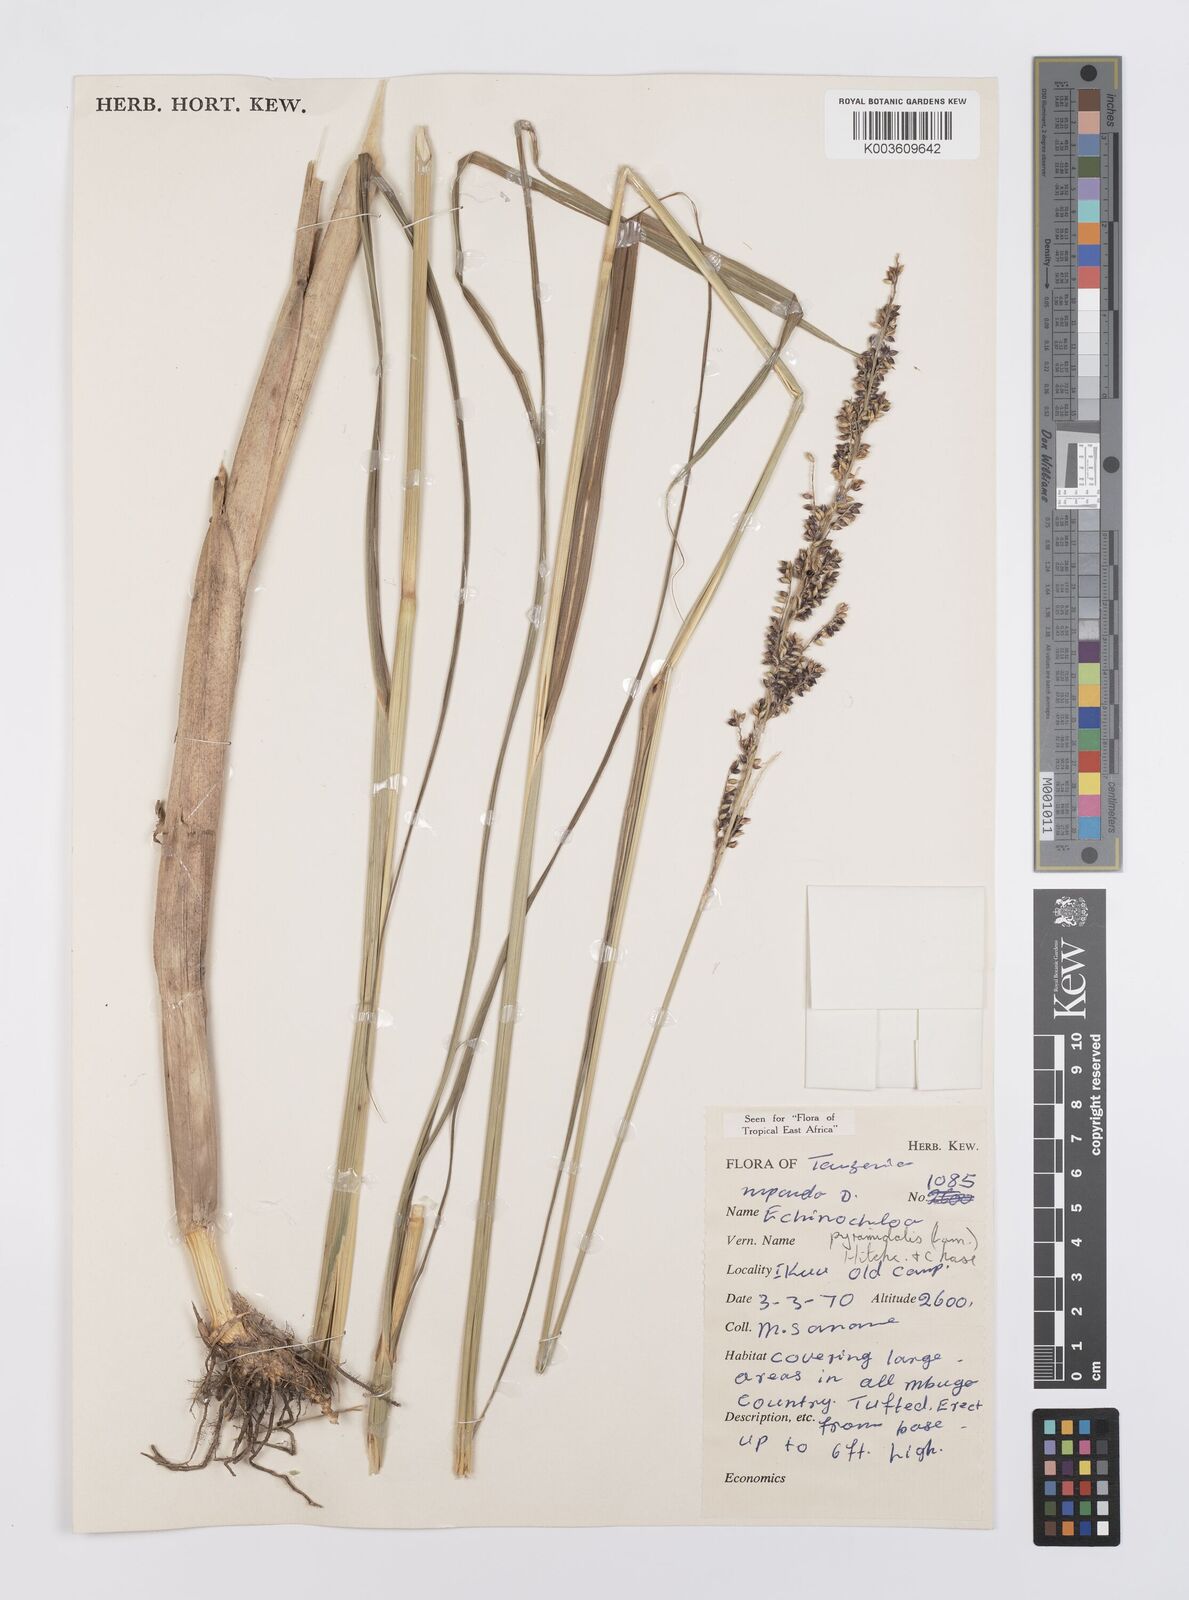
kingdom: Plantae
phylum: Tracheophyta
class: Liliopsida
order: Poales
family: Poaceae
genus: Echinochloa
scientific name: Echinochloa pyramidalis
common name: Antelope grass
